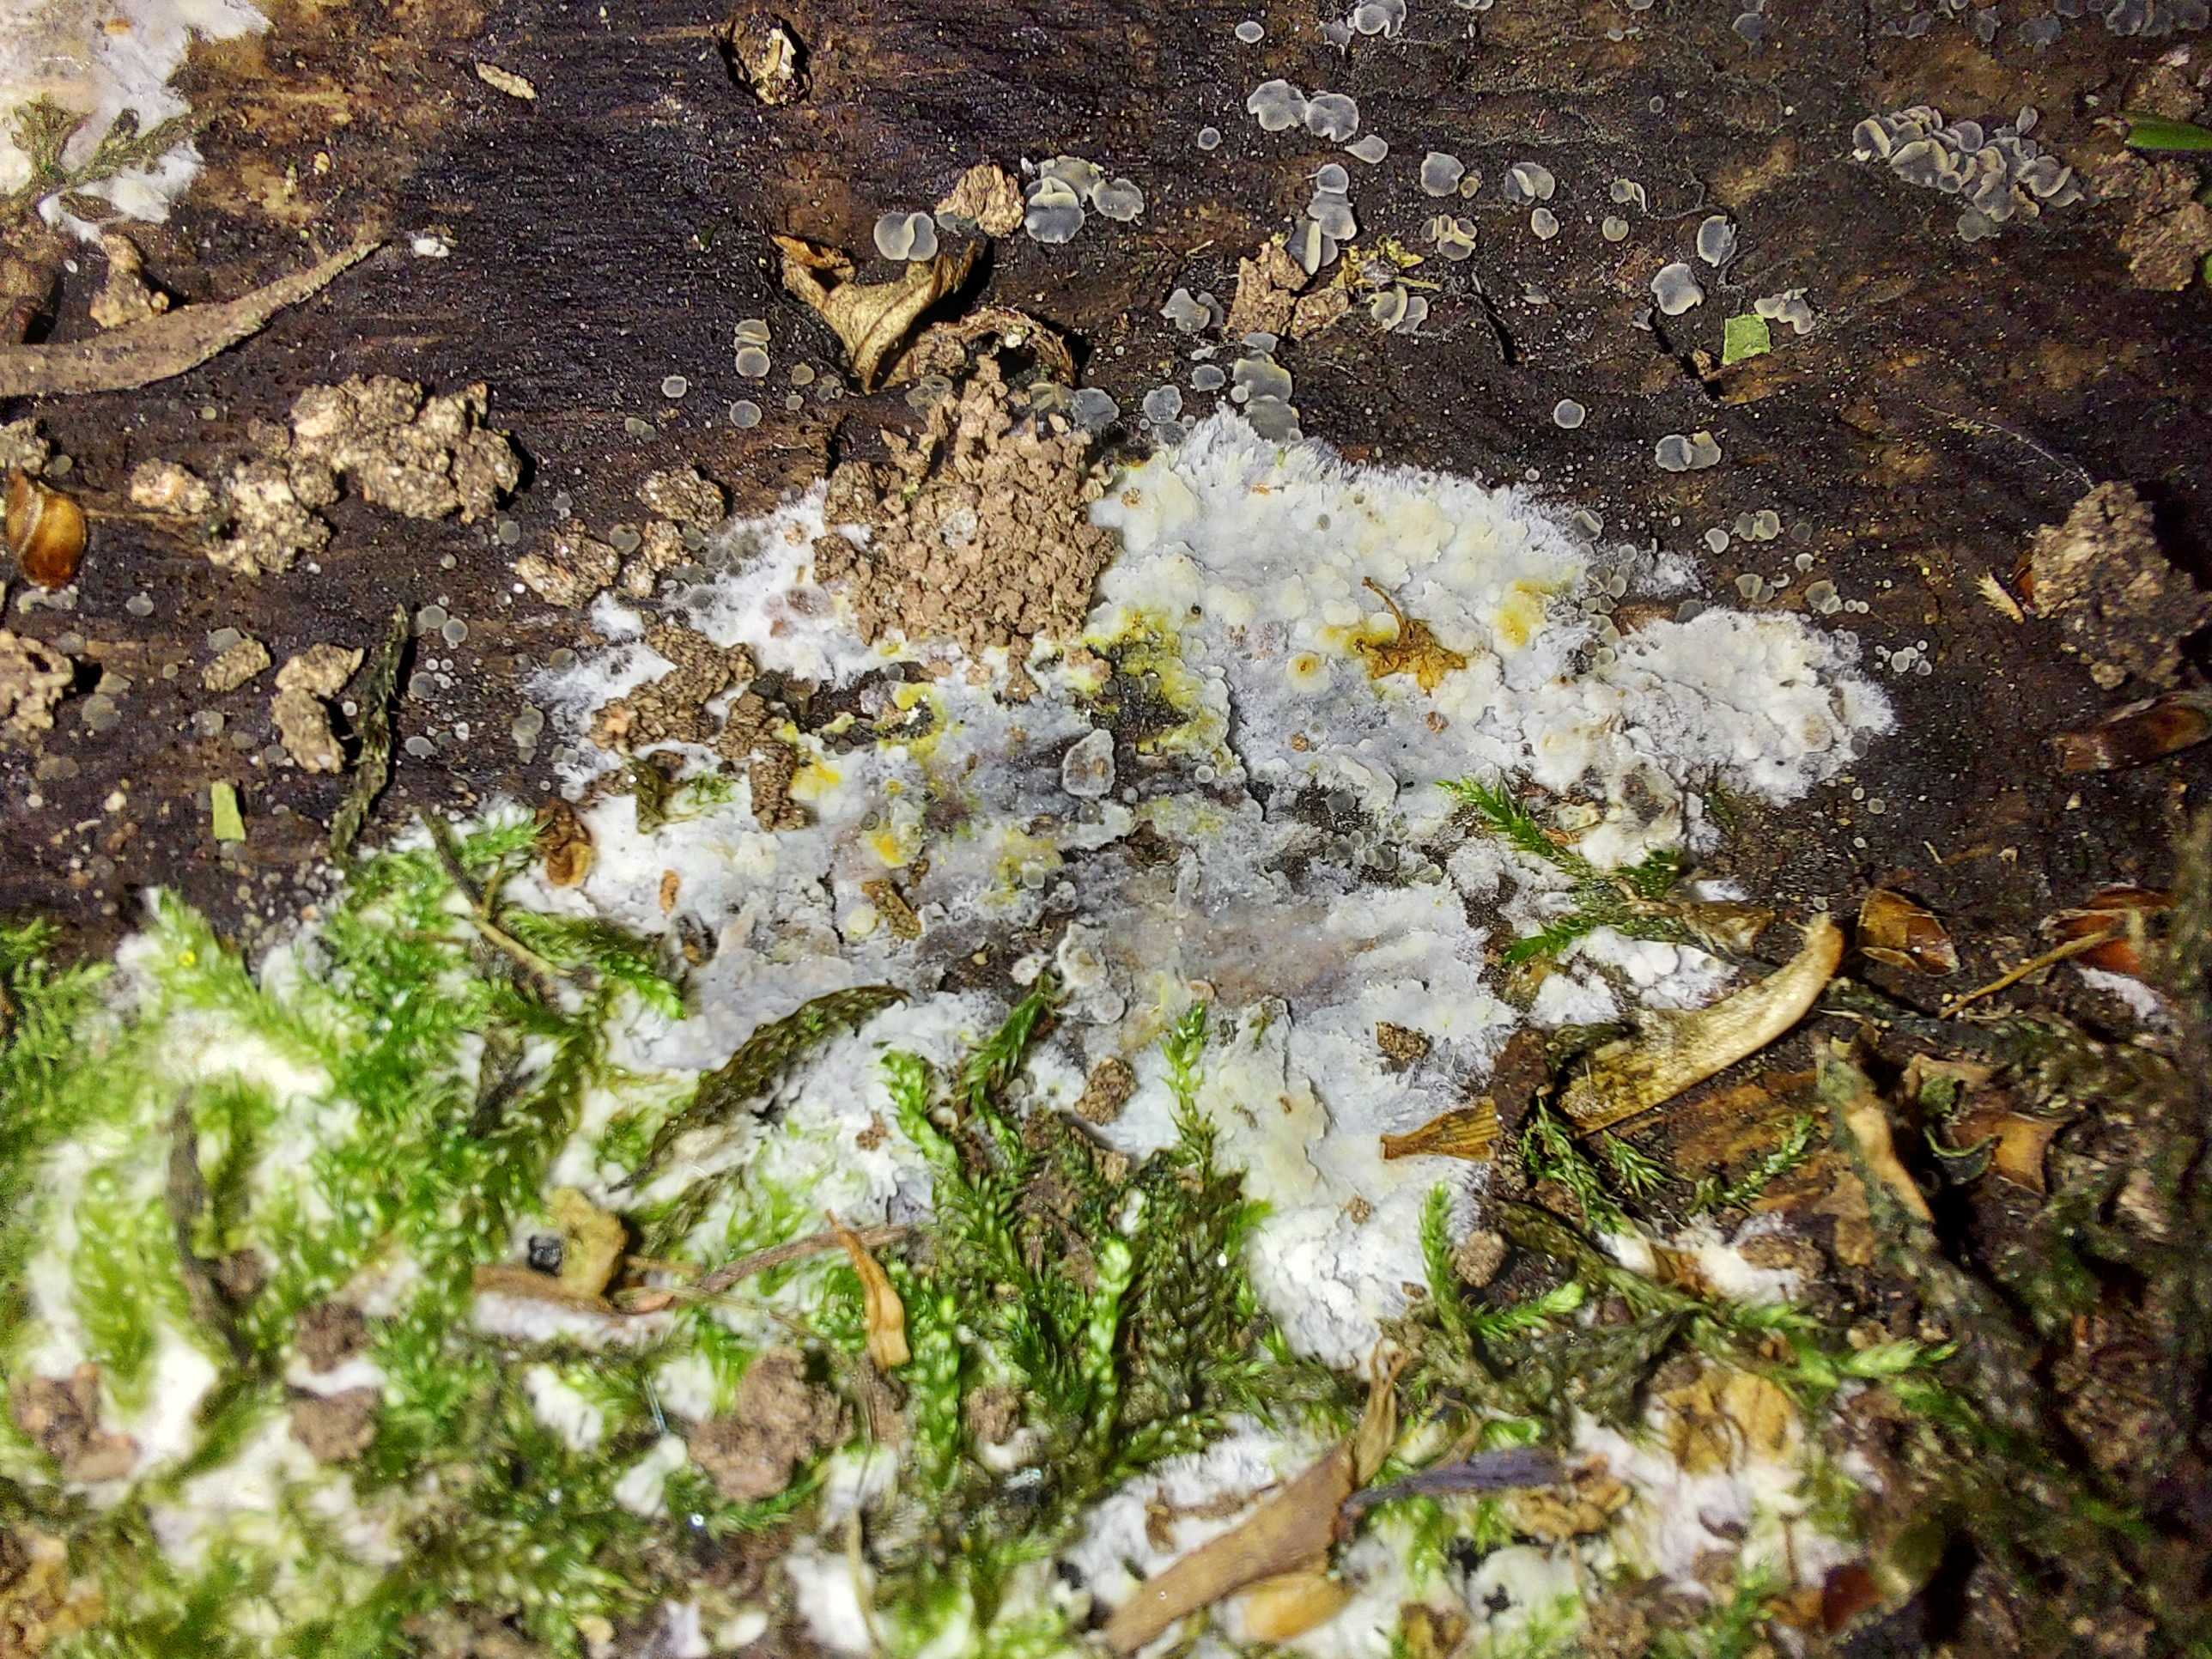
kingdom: Fungi
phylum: Basidiomycota
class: Agaricomycetes
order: Corticiales
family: Corticiaceae
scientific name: Corticiaceae
